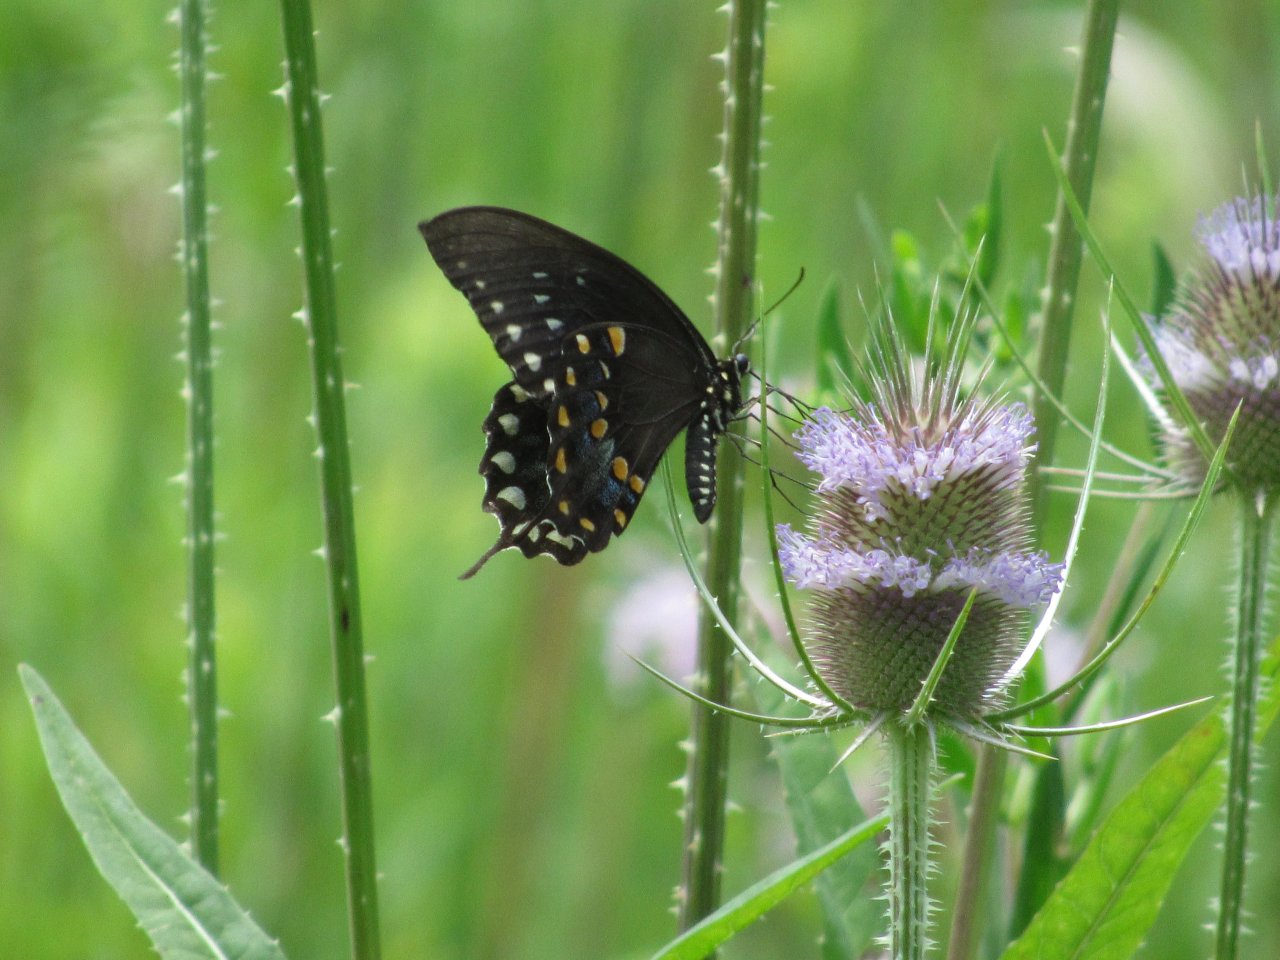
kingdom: Animalia
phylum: Arthropoda
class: Insecta
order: Lepidoptera
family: Papilionidae
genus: Pterourus
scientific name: Pterourus troilus
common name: Spicebush Swallowtail
